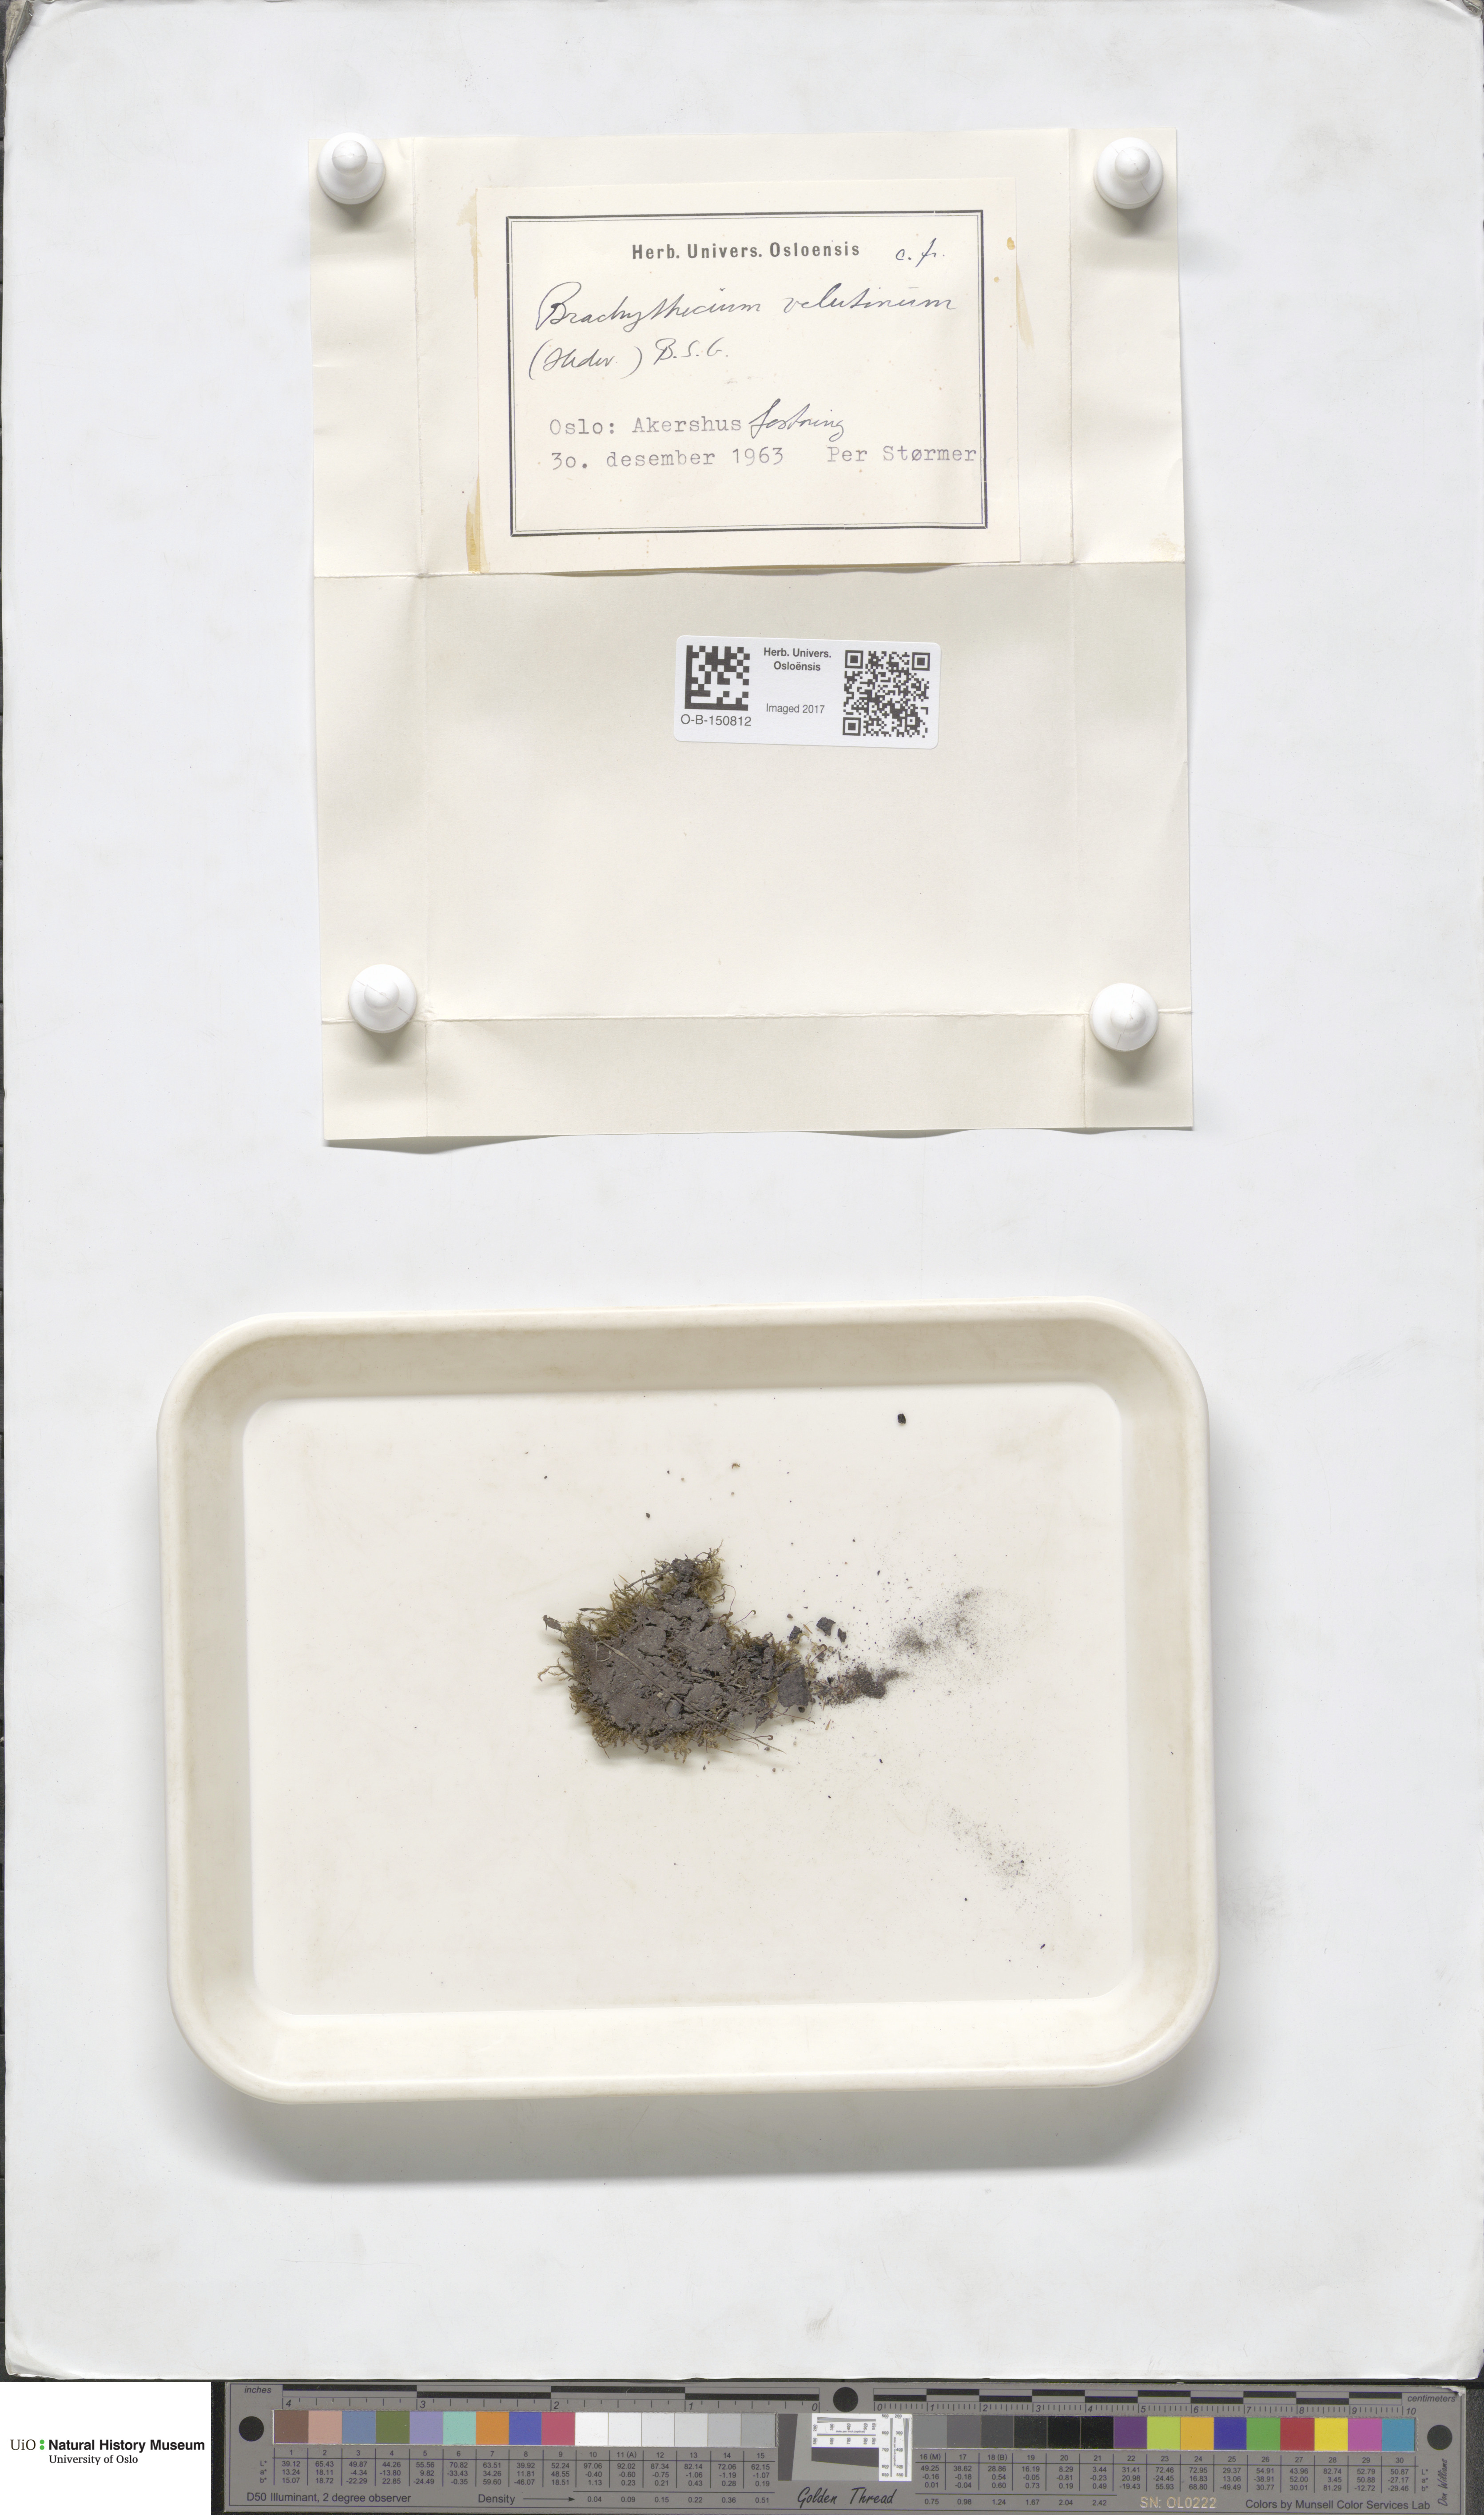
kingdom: Plantae
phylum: Bryophyta
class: Bryopsida
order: Hypnales
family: Brachytheciaceae
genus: Brachytheciastrum
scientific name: Brachytheciastrum velutinum
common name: Velvet feather-moss
